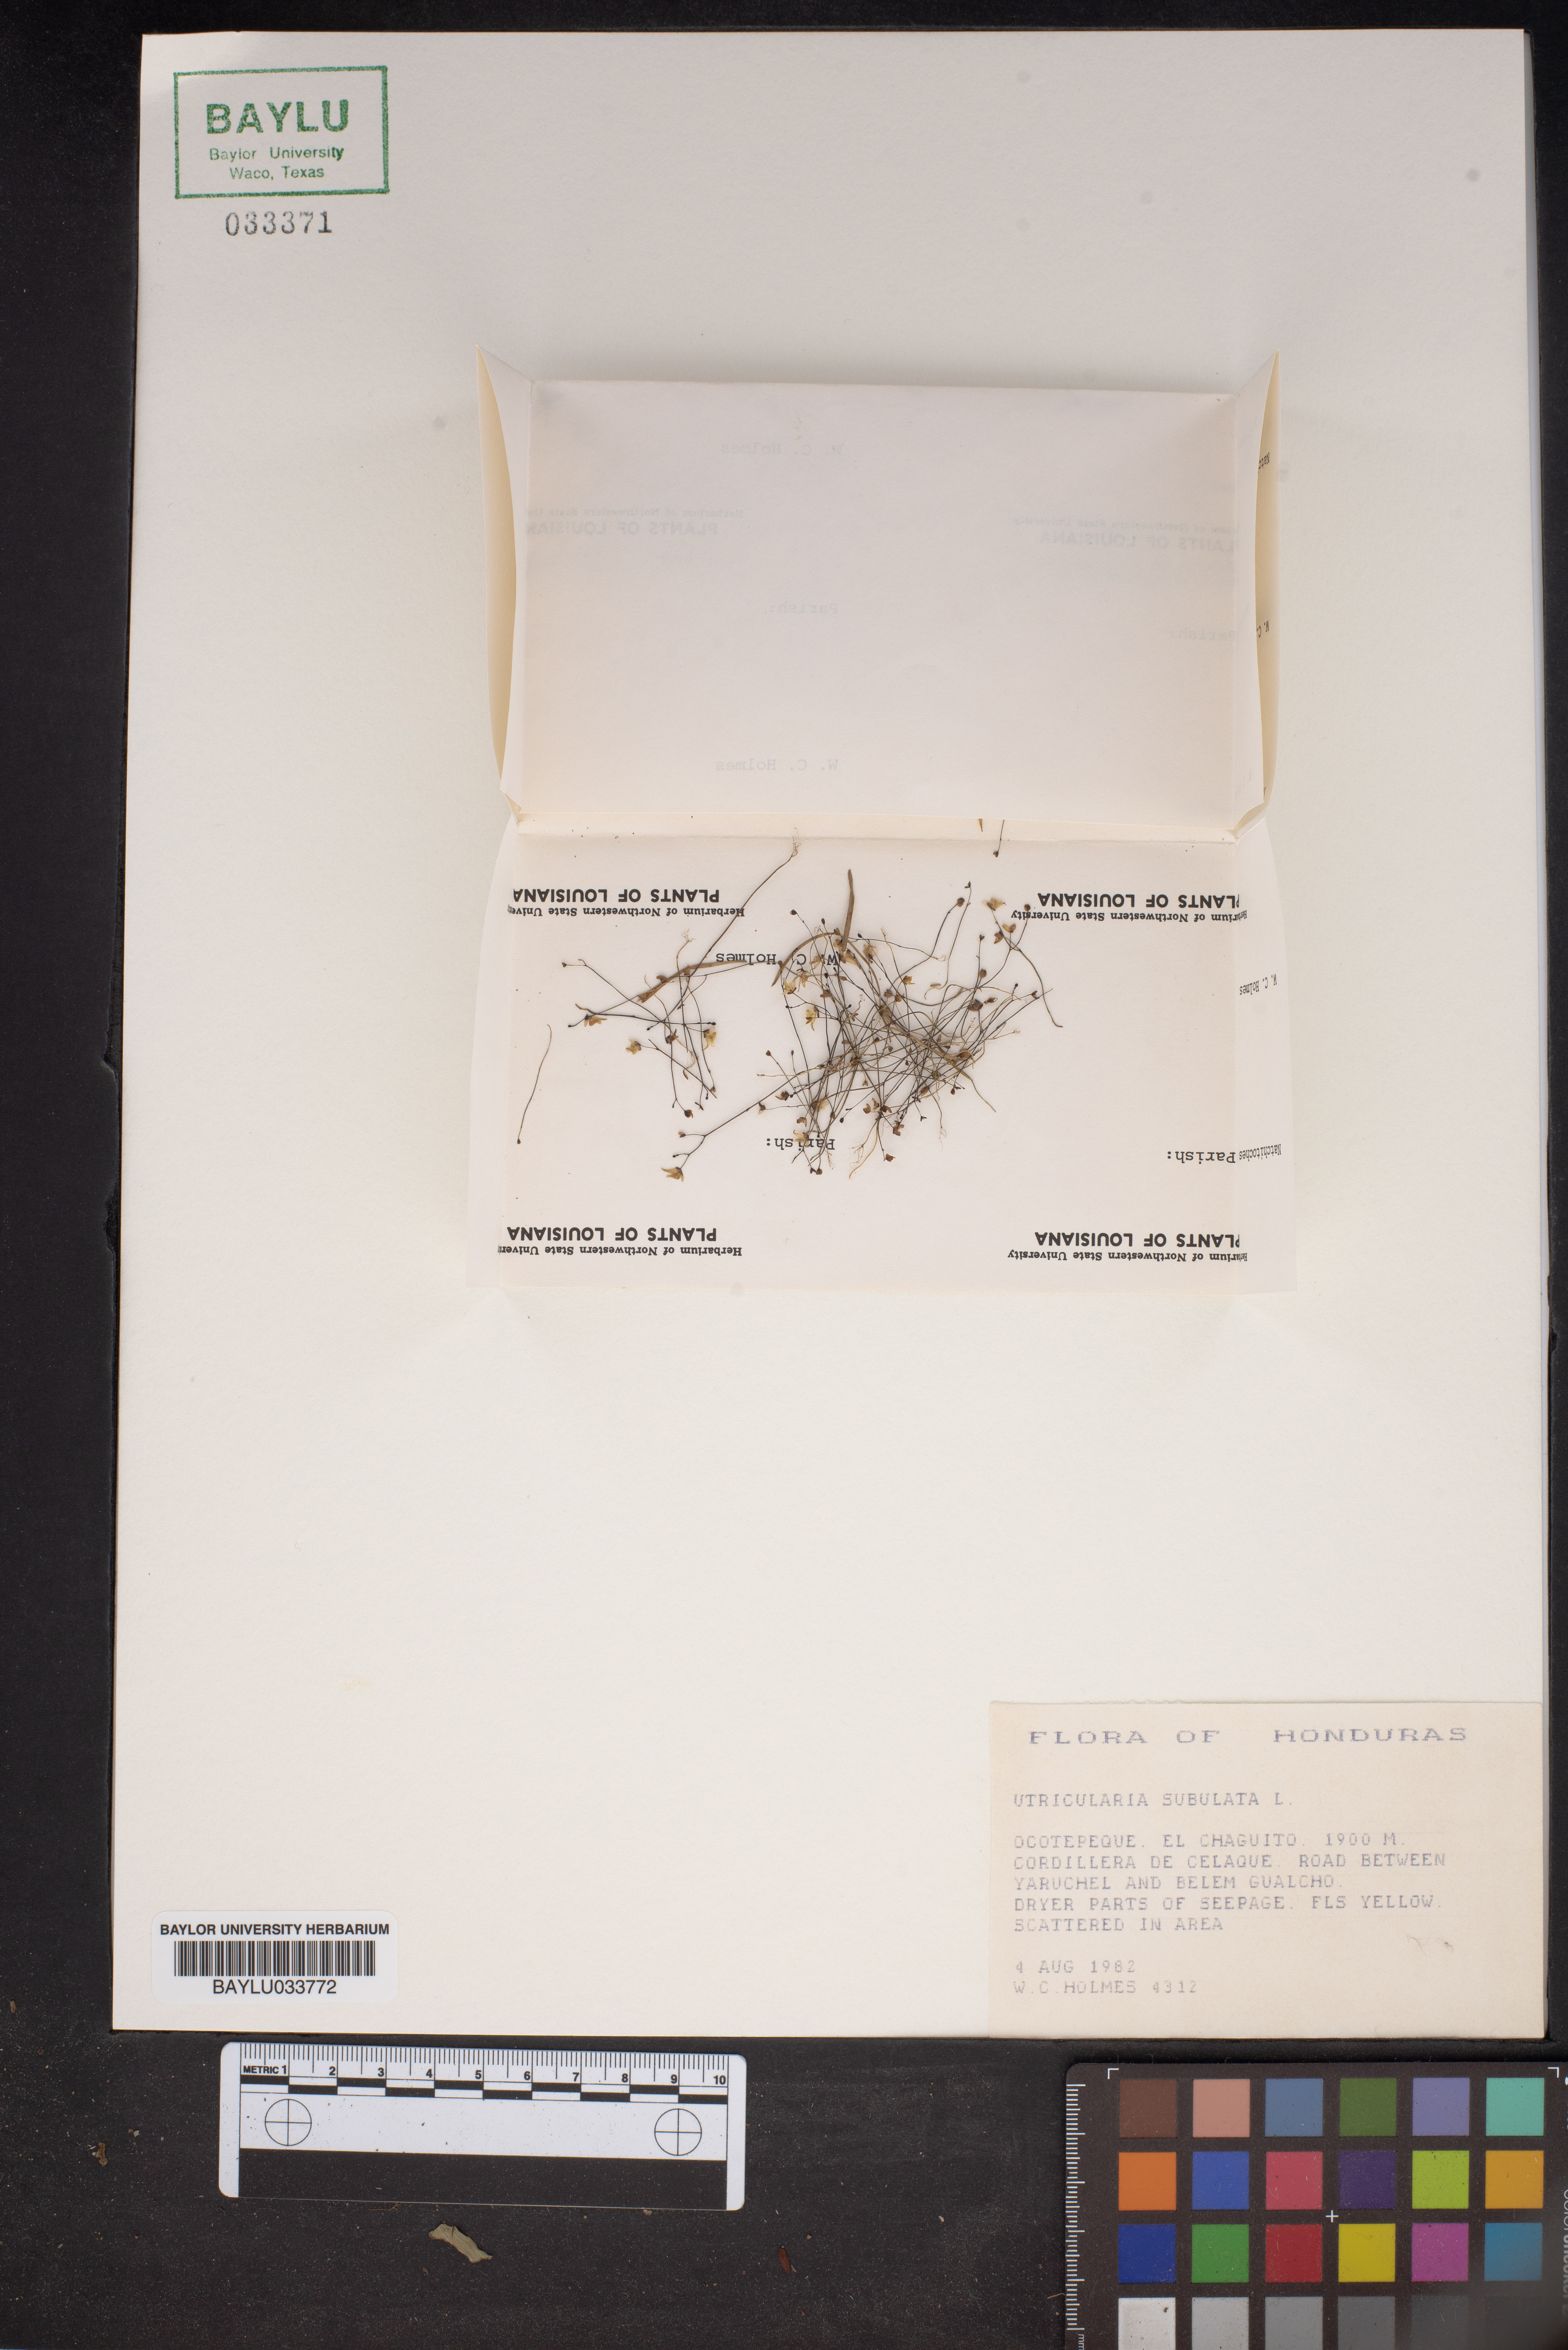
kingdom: Plantae
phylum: Tracheophyta
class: Magnoliopsida
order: Lamiales
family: Lentibulariaceae
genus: Utricularia
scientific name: Utricularia subulata
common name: Tiny bladderwort
